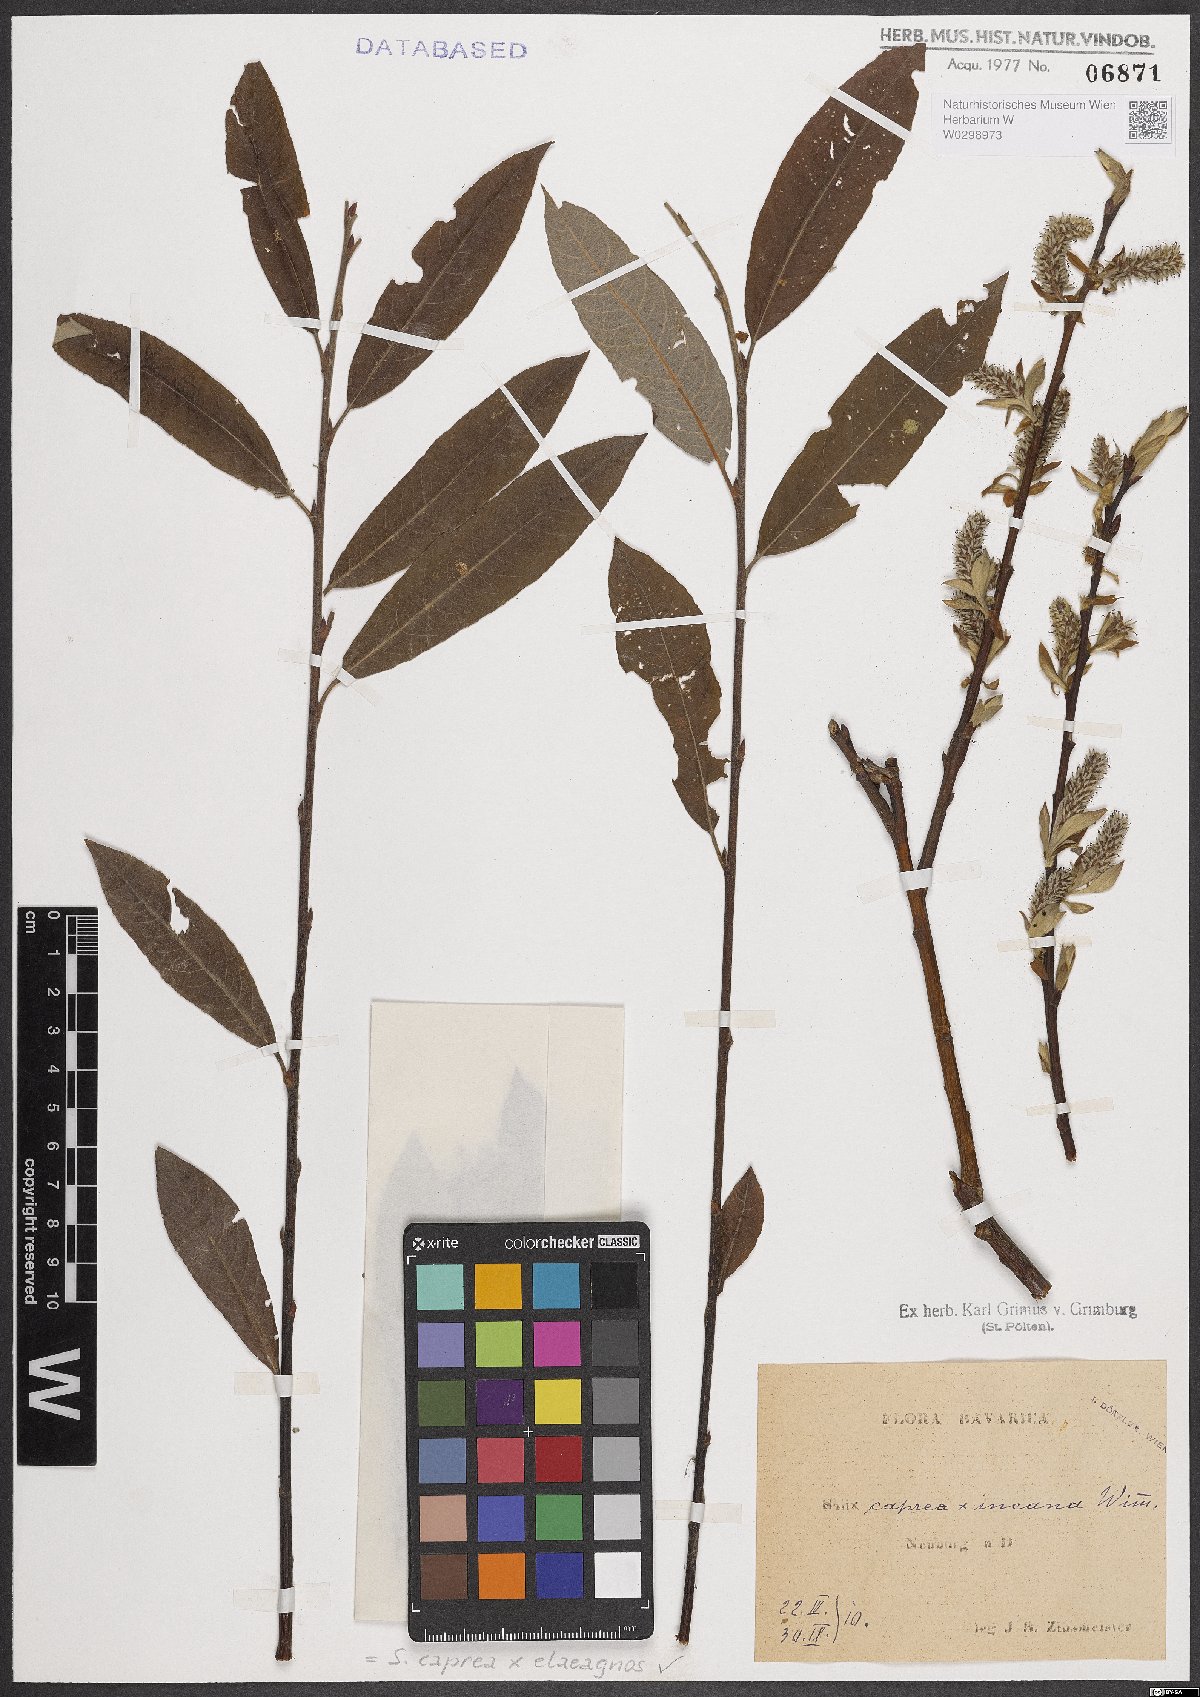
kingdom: Plantae
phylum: Tracheophyta
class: Magnoliopsida
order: Malpighiales
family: Salicaceae
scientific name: Salicaceae
